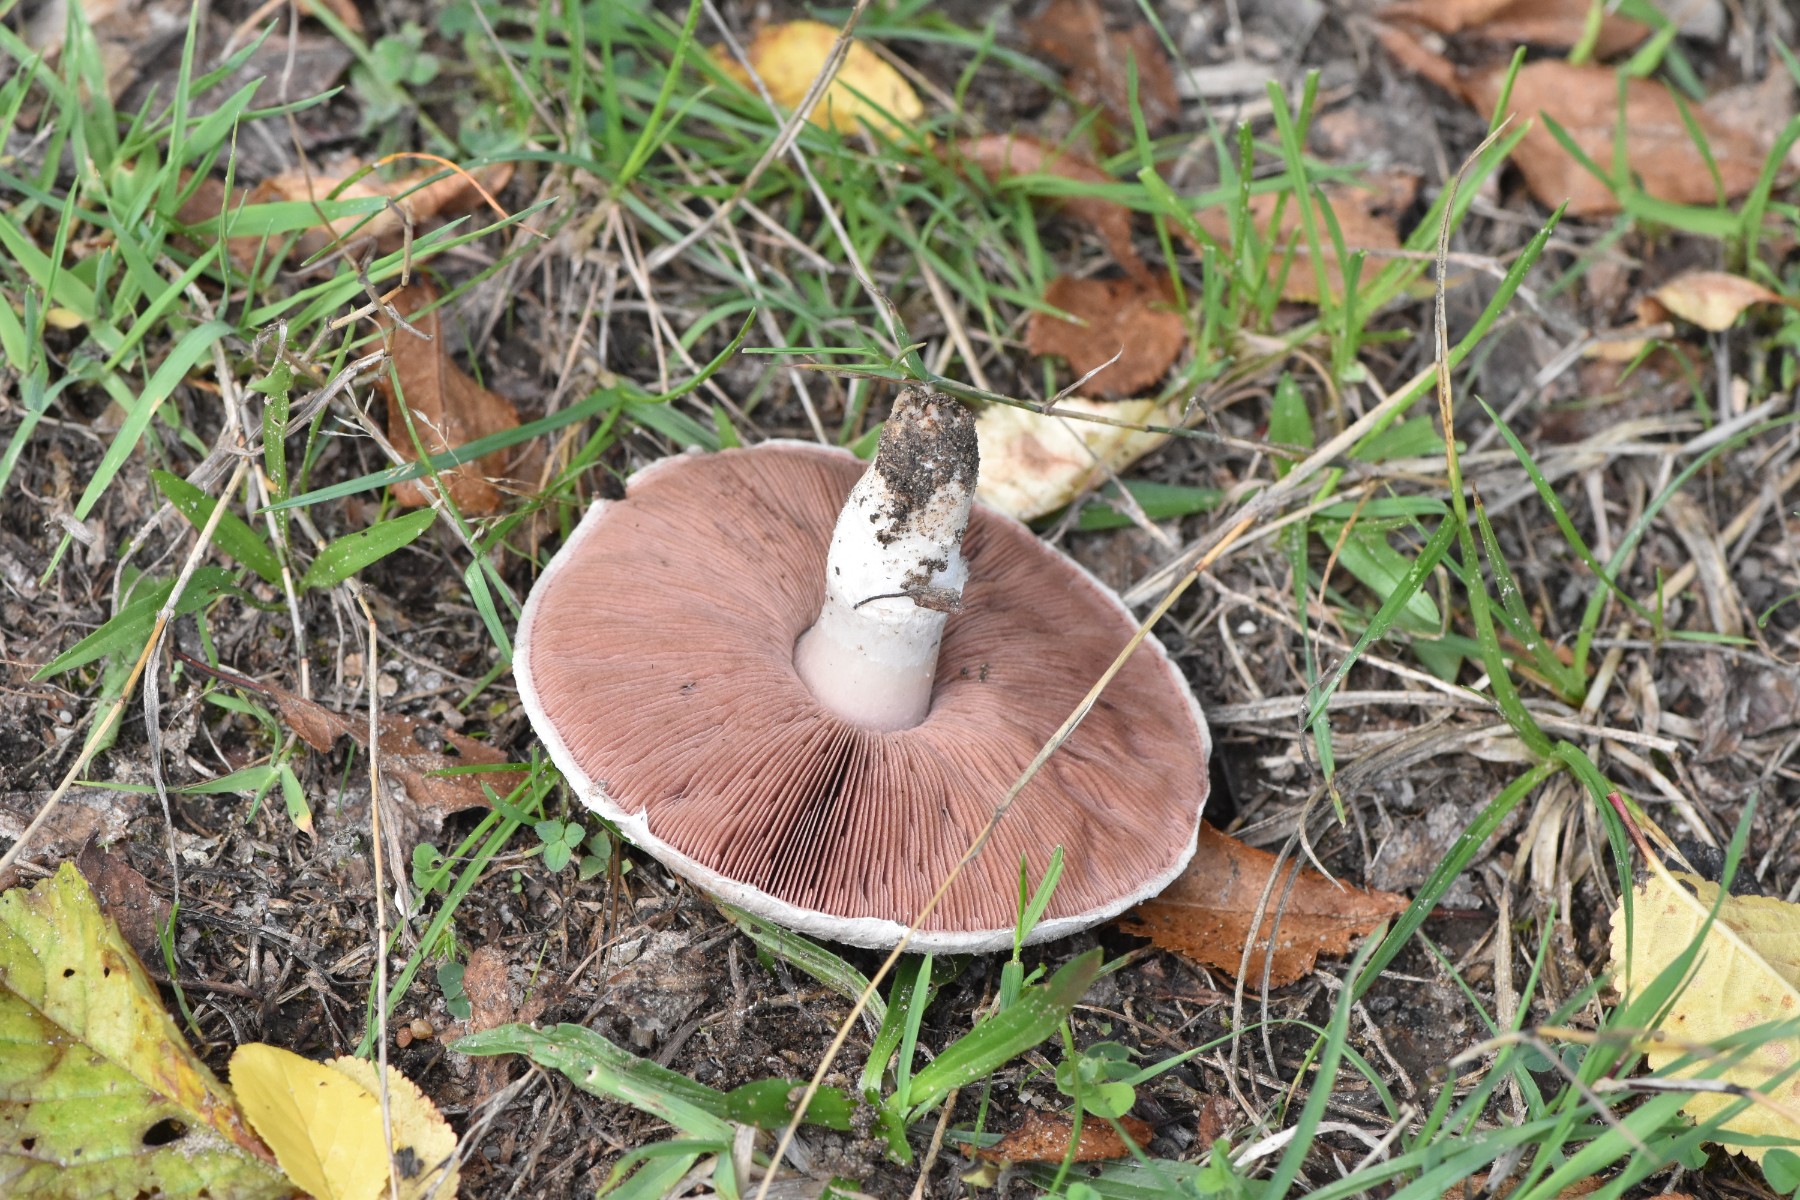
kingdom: Fungi
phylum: Basidiomycota
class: Agaricomycetes
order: Agaricales
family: Agaricaceae
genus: Agaricus
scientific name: Agaricus campestris
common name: mark-champignon
